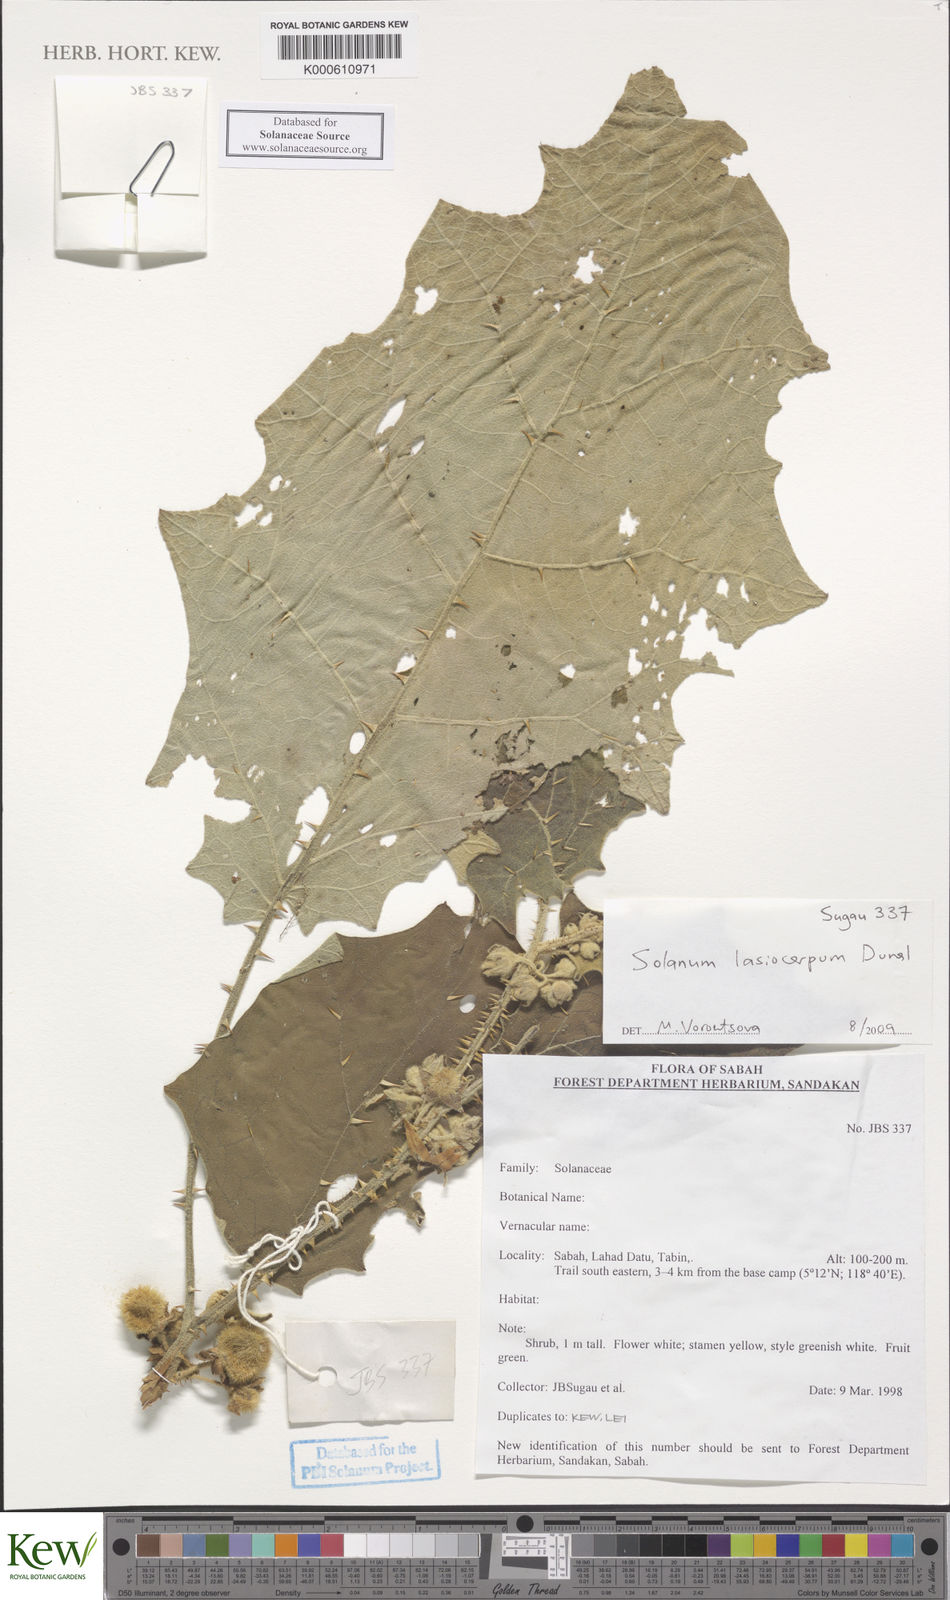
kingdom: Plantae
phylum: Tracheophyta
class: Magnoliopsida
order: Solanales
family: Solanaceae
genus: Solanum
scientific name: Solanum lasiocarpum
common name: Indian nightshade
